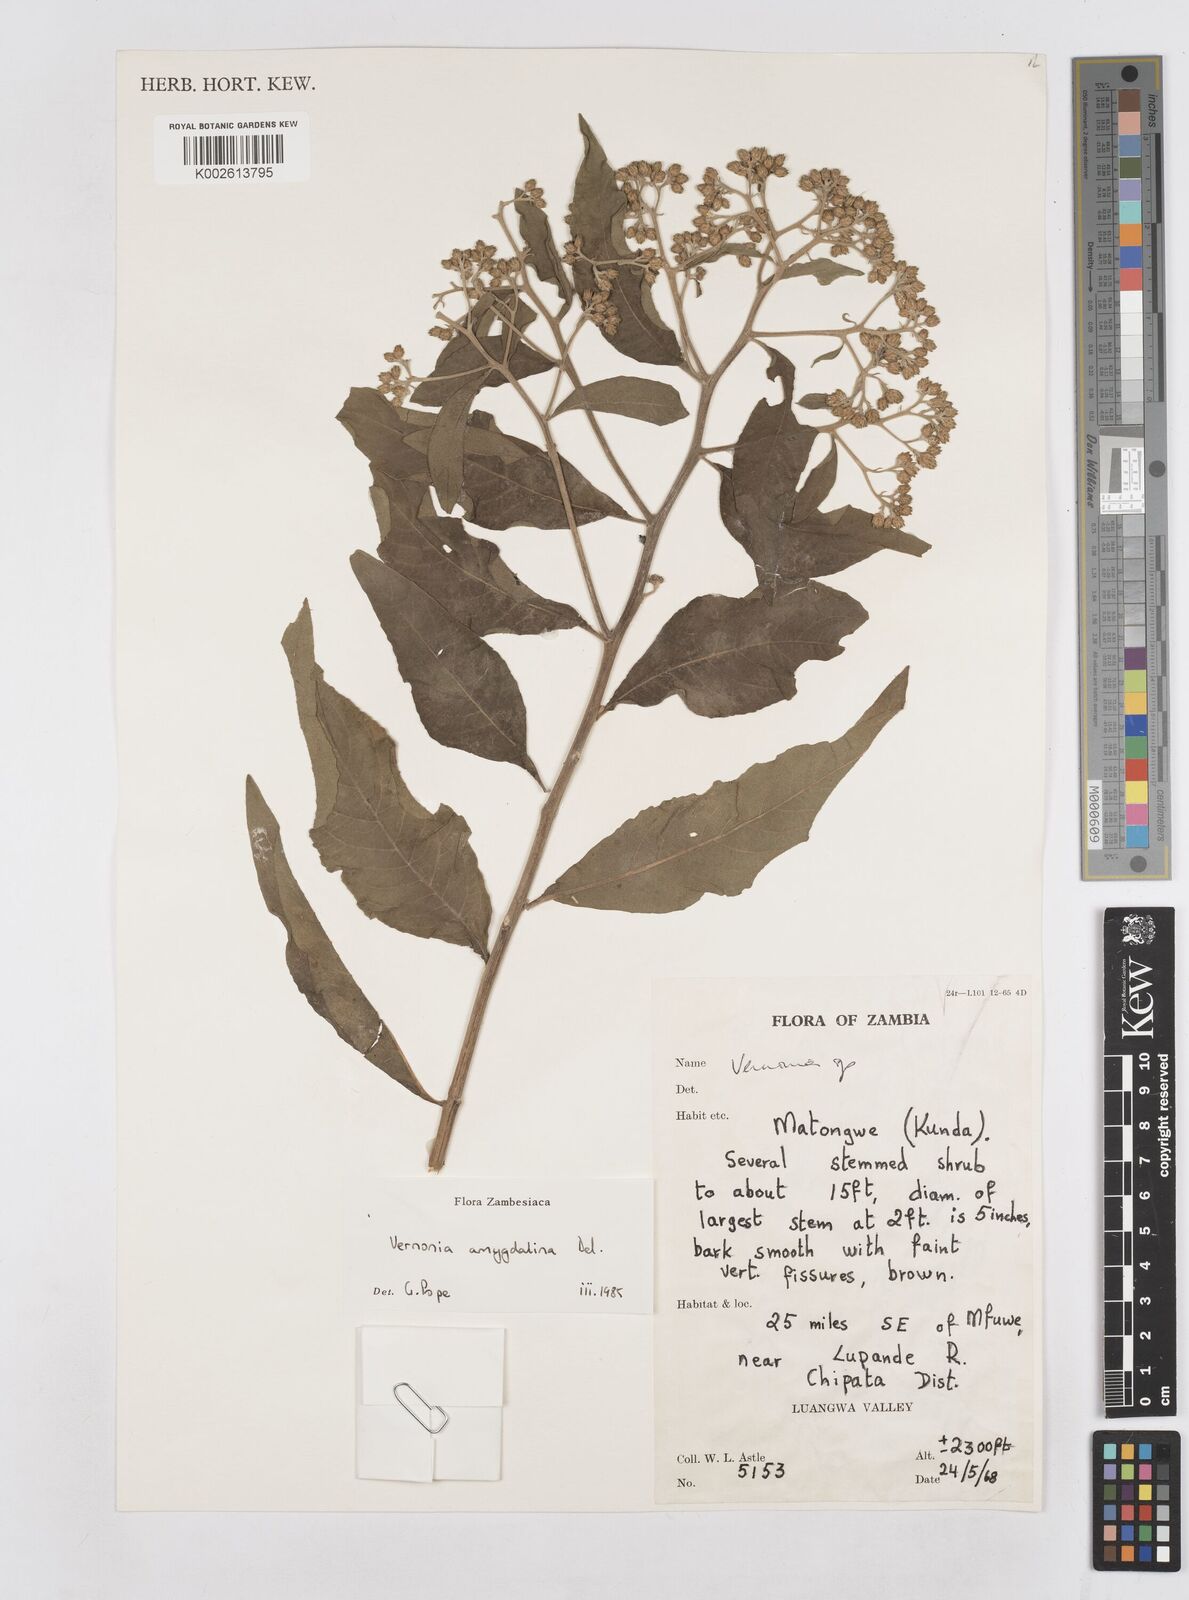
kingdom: Plantae
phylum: Tracheophyta
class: Magnoliopsida
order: Asterales
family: Asteraceae
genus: Gymnanthemum
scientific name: Gymnanthemum amygdalinum
